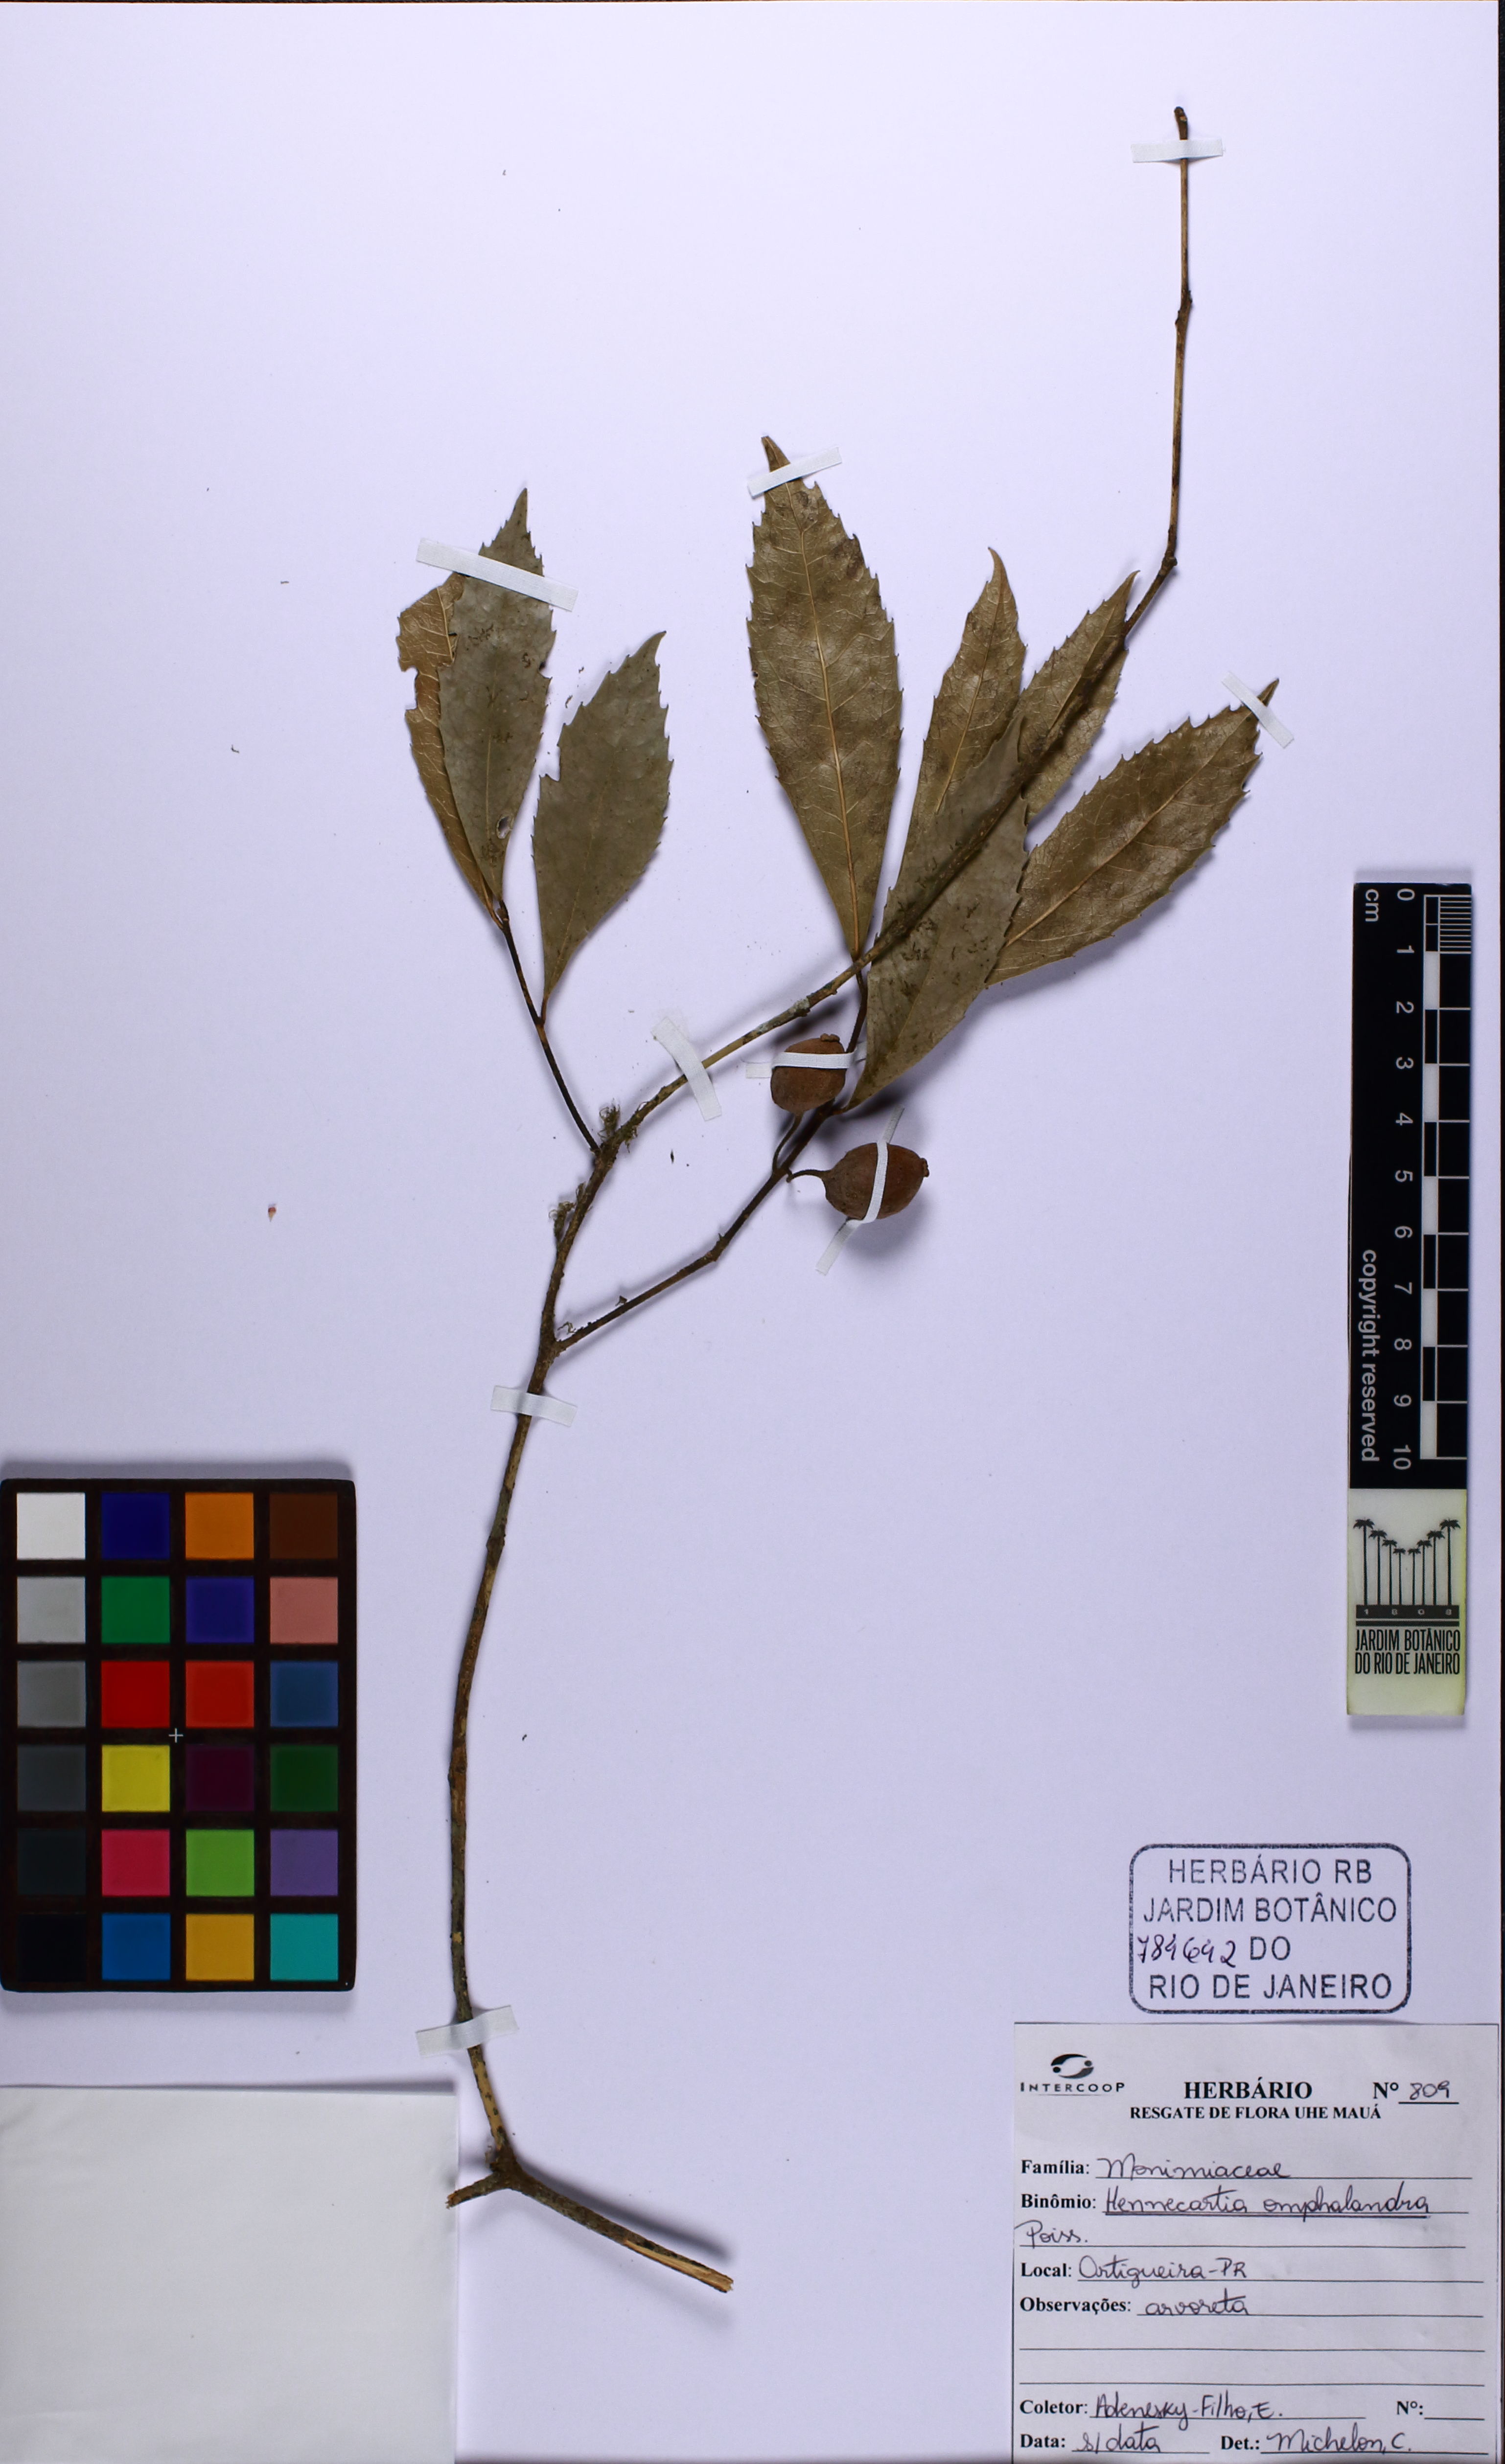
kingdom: Plantae
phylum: Tracheophyta
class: Magnoliopsida
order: Laurales
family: Monimiaceae
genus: Hennecartia
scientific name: Hennecartia omphalandra
